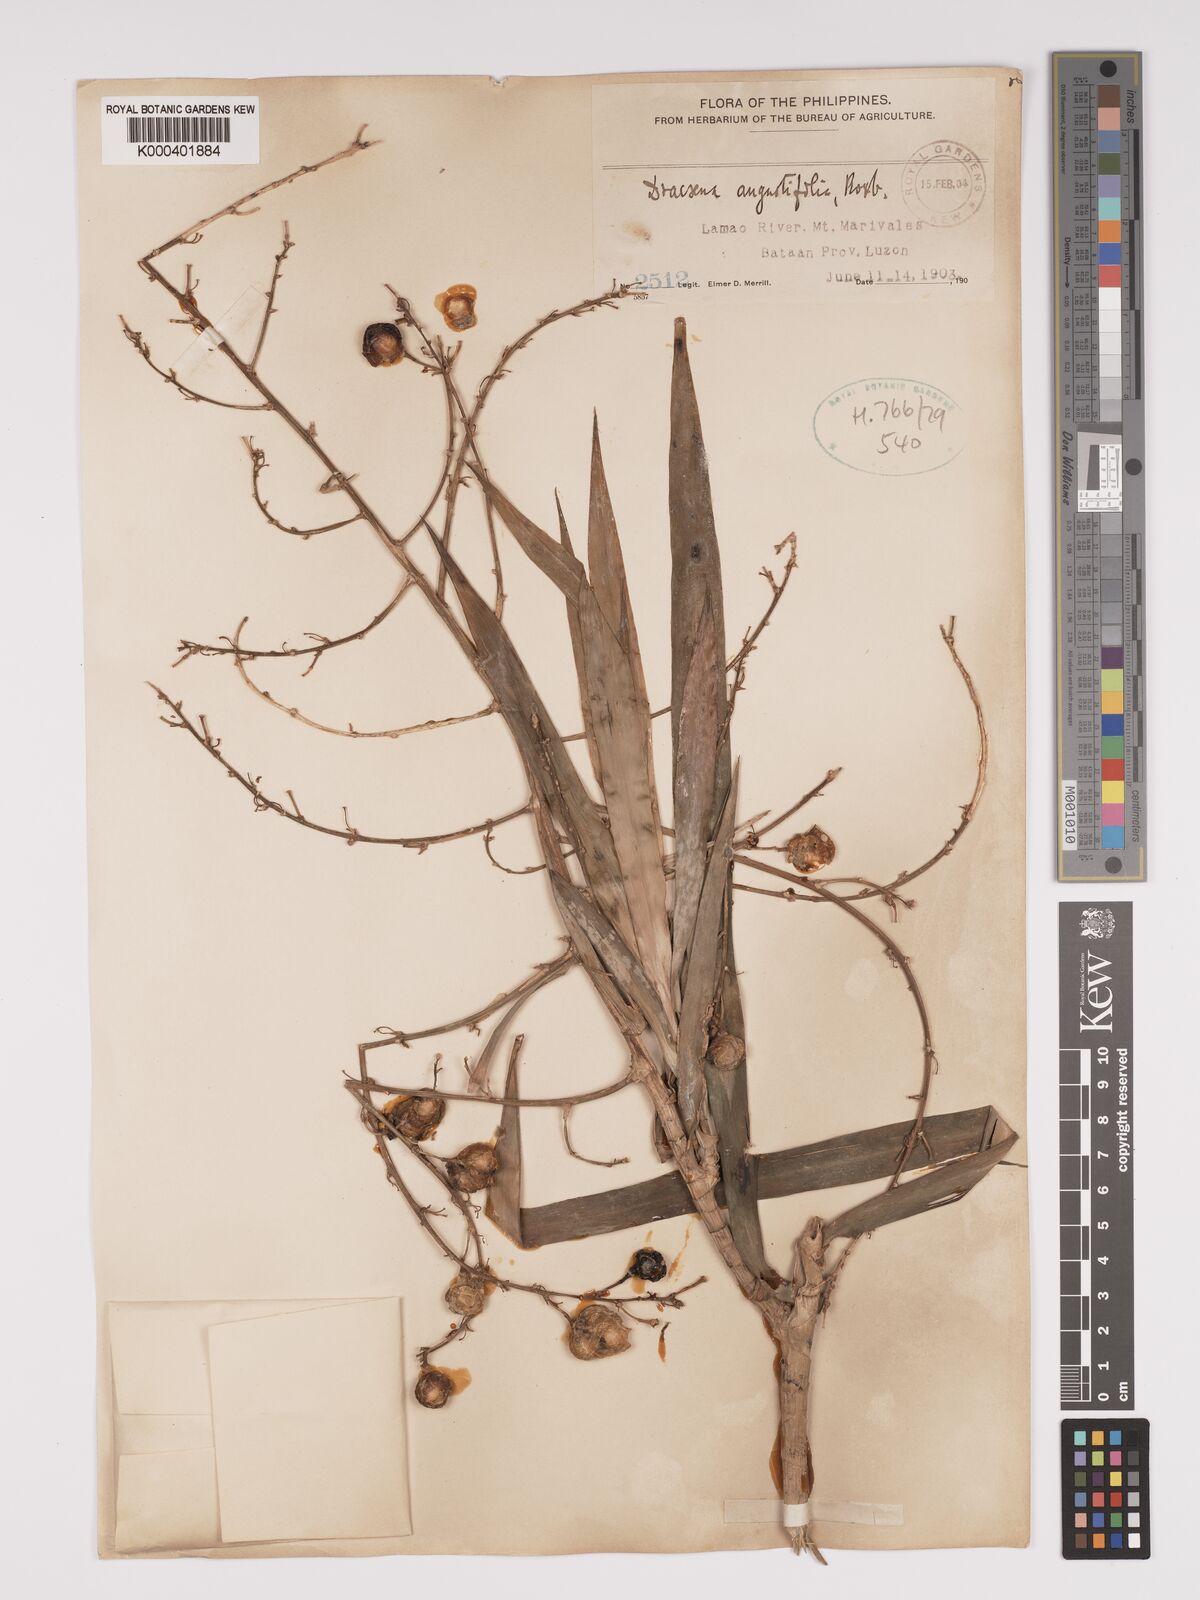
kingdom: Plantae
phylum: Tracheophyta
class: Liliopsida
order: Asparagales
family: Asparagaceae
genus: Dracaena
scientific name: Dracaena angustifolia
